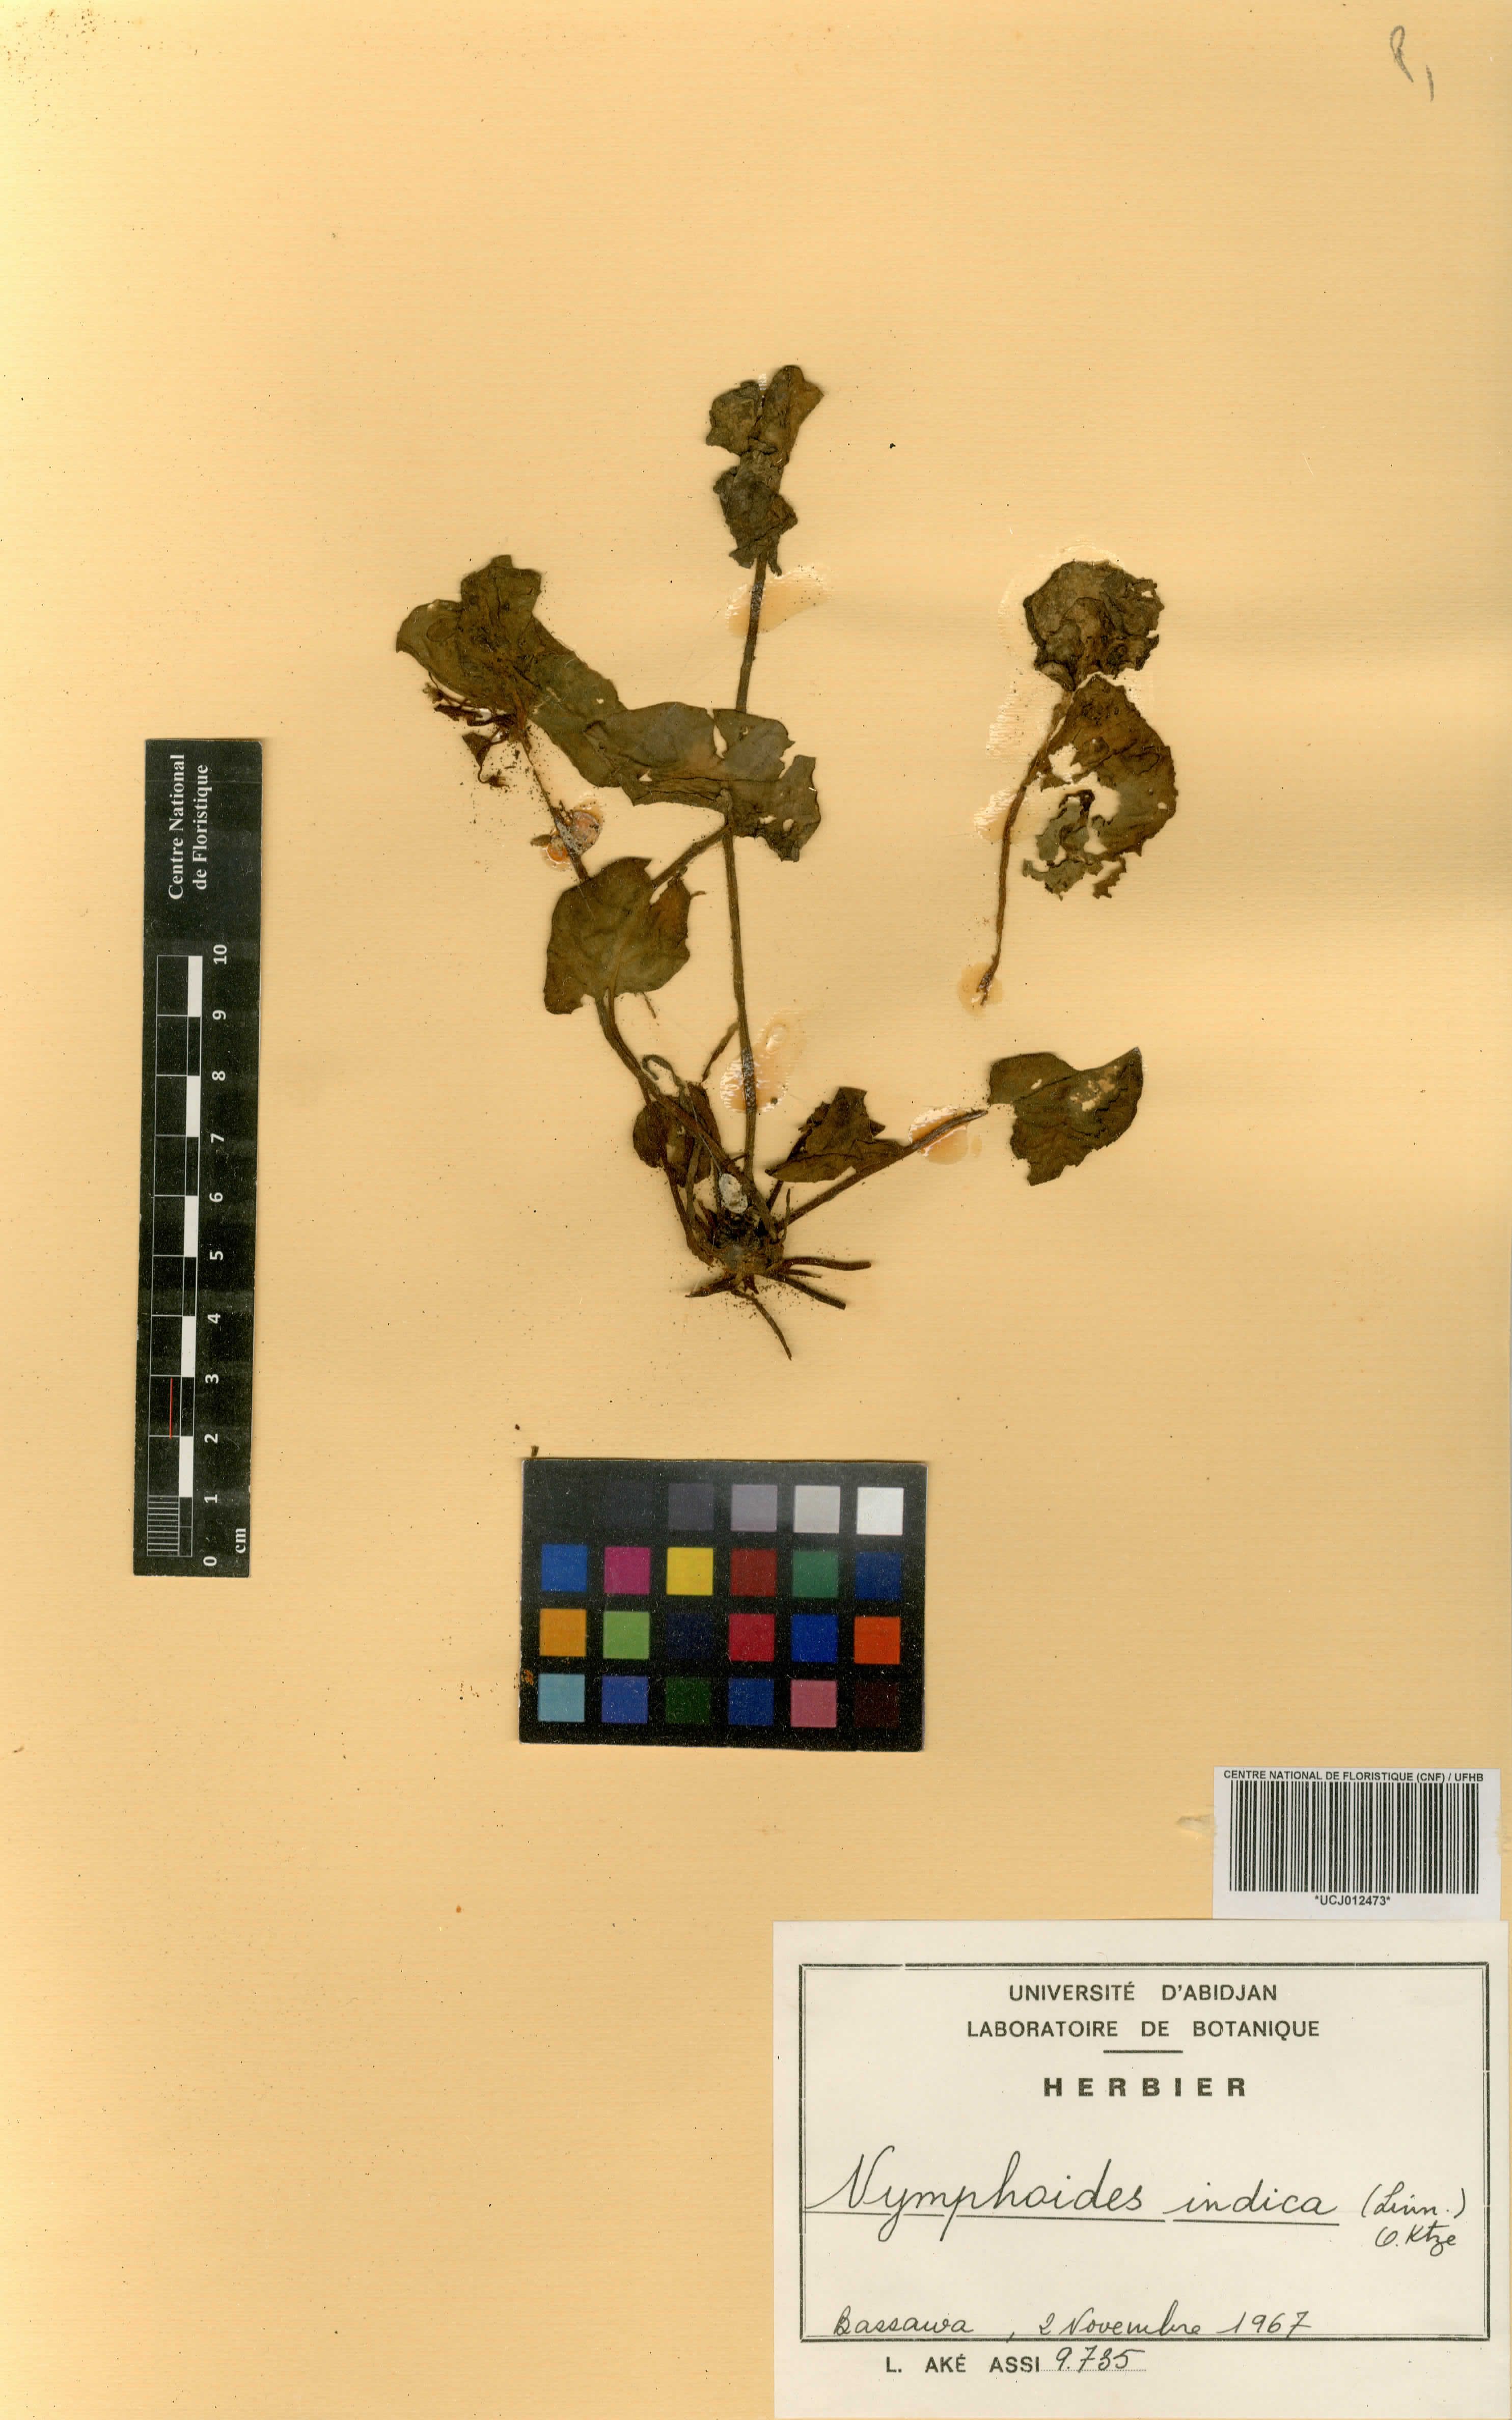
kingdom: Plantae
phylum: Tracheophyta
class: Magnoliopsida
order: Asterales
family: Menyanthaceae
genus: Nymphoides
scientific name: Nymphoides indica
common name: Water-snowflake
